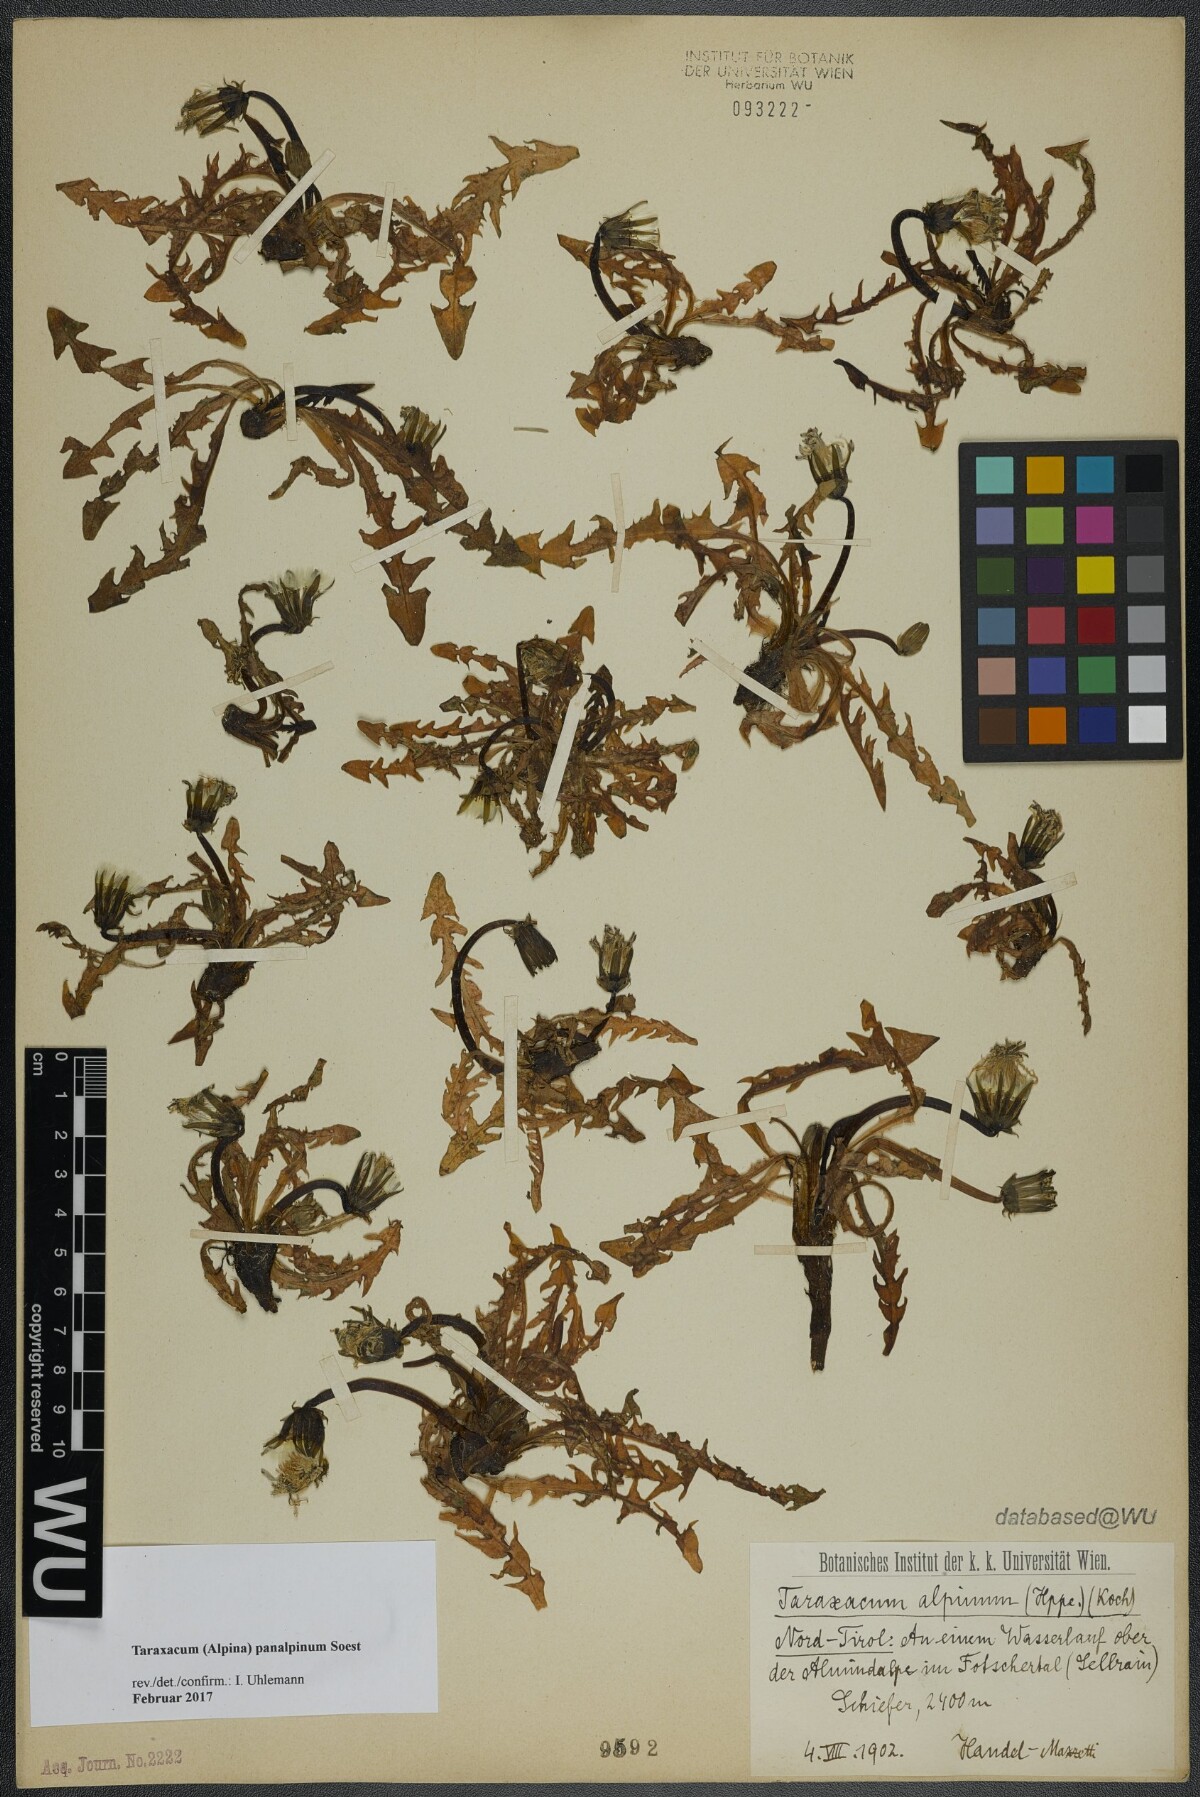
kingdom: Plantae
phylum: Tracheophyta
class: Magnoliopsida
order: Asterales
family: Asteraceae
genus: Taraxacum
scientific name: Taraxacum panalpinum
